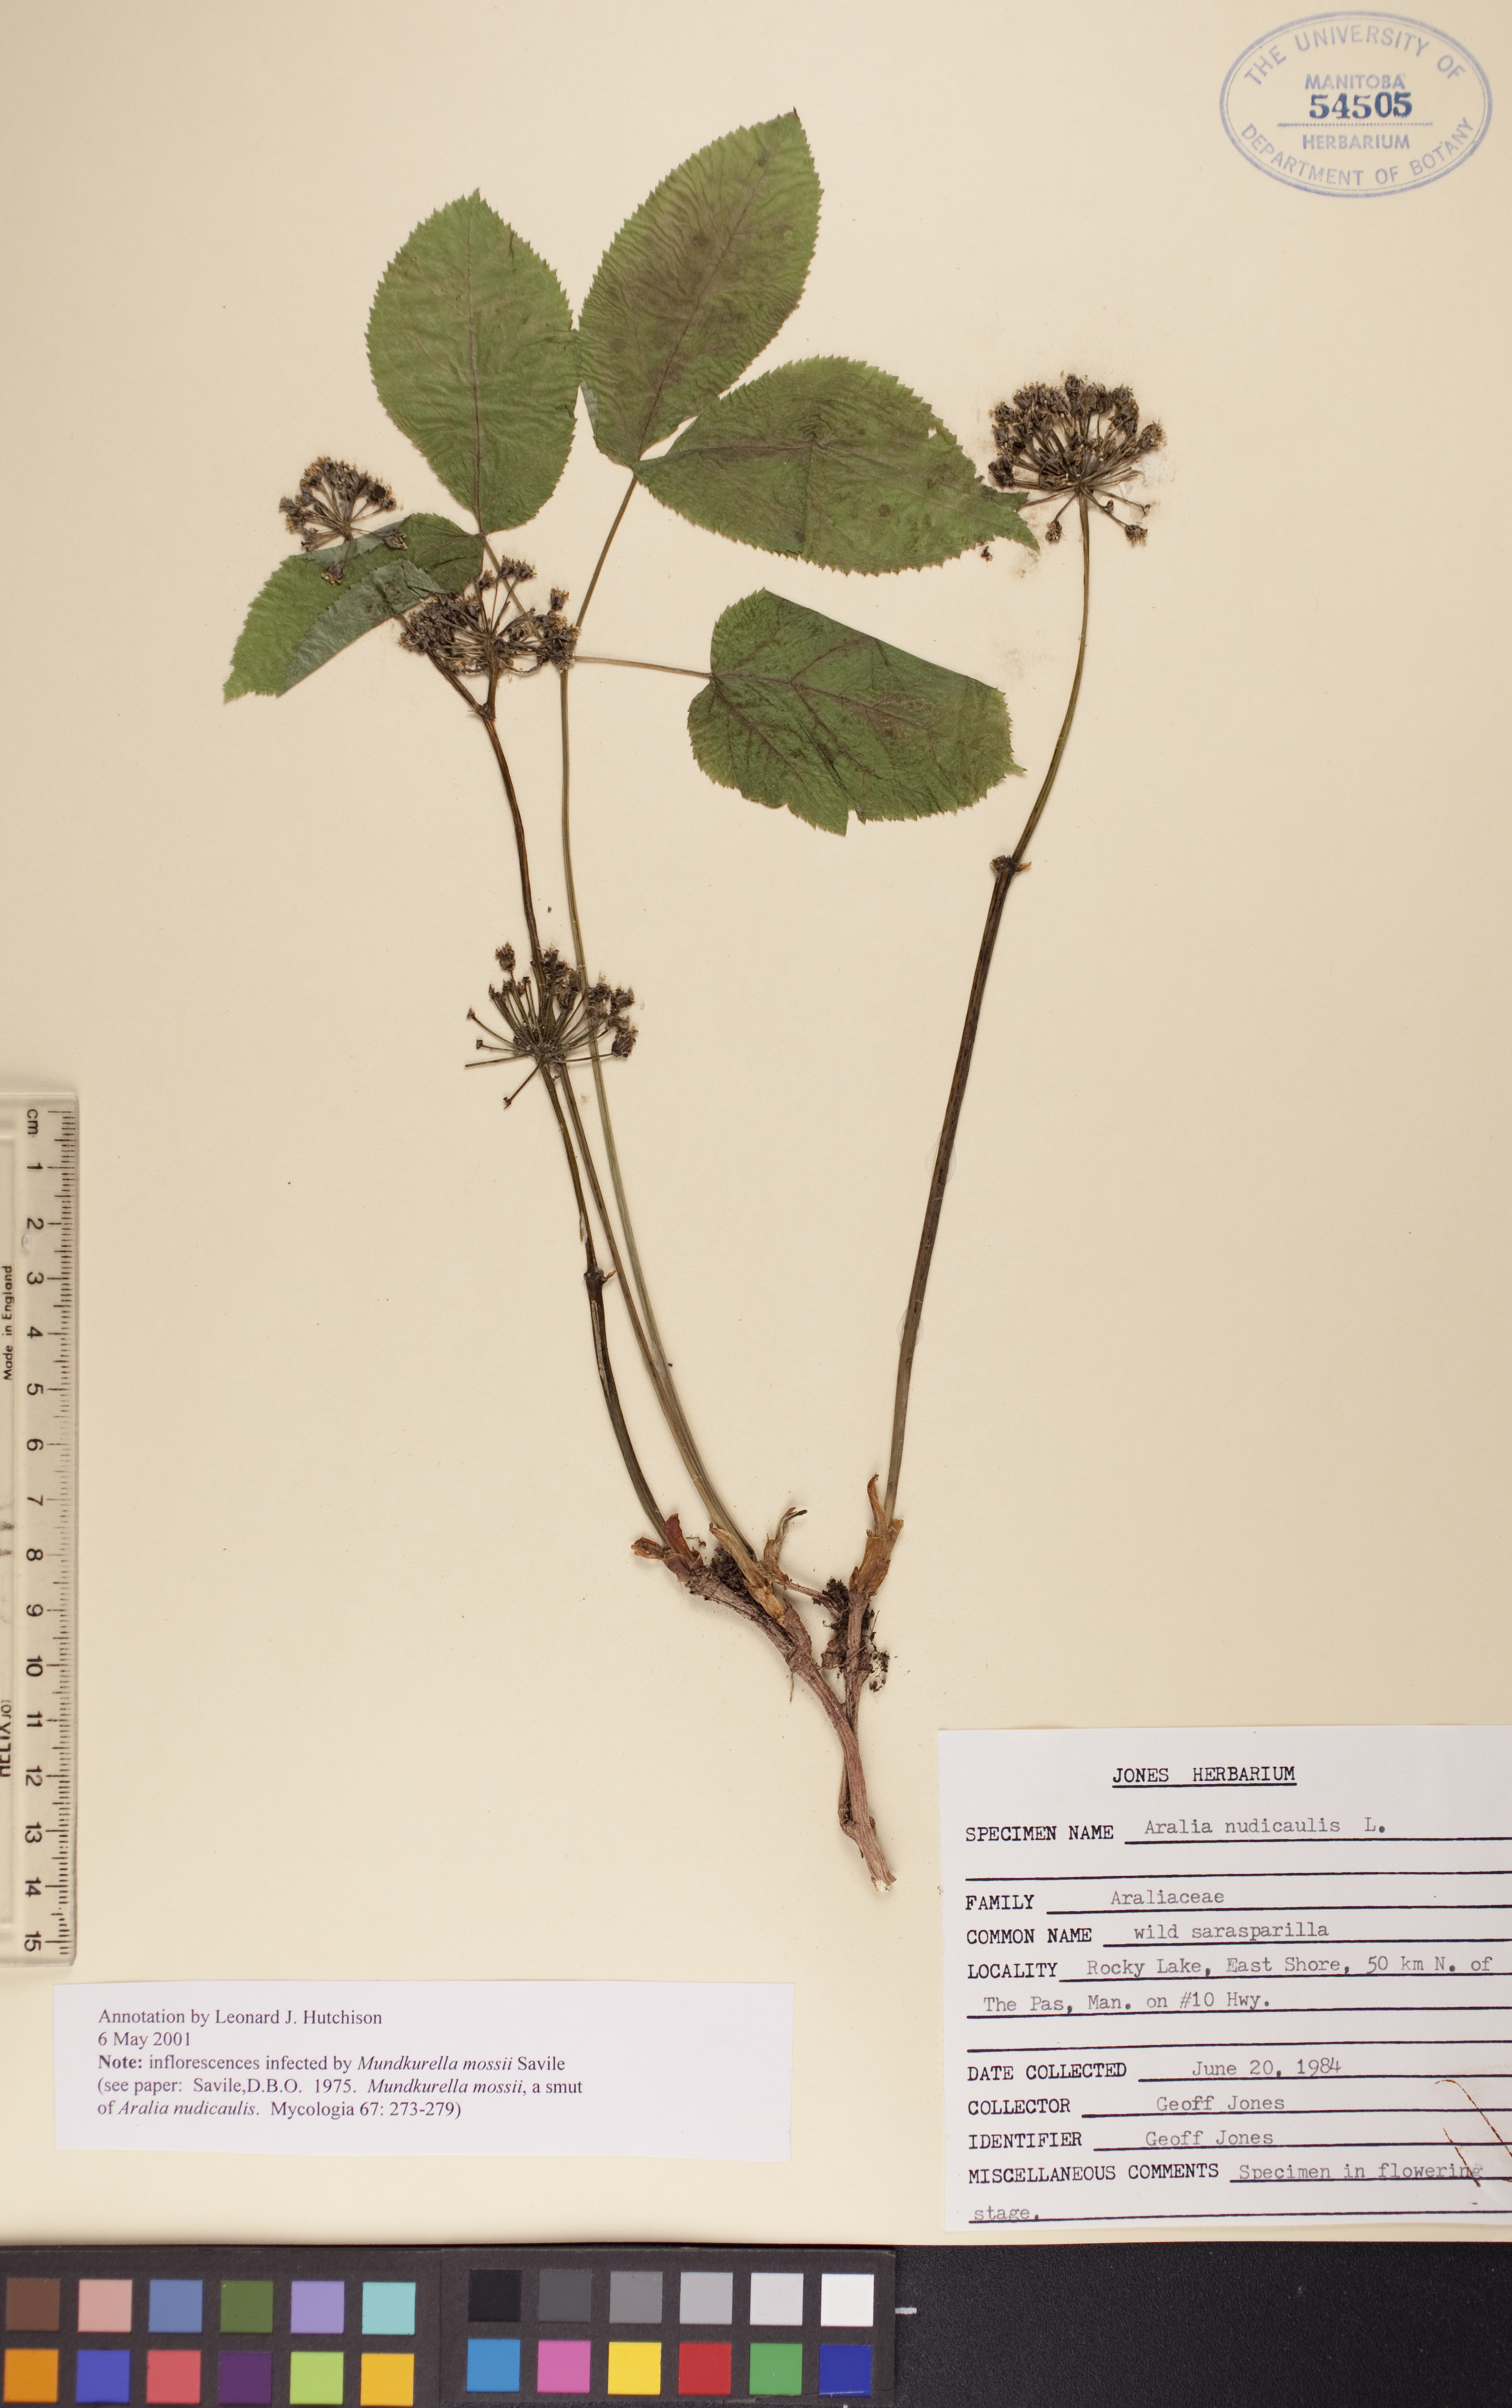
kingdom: Plantae
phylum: Tracheophyta
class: Magnoliopsida
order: Apiales
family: Araliaceae
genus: Aralia
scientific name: Aralia nudicaulis
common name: Wild sarsaparilla
